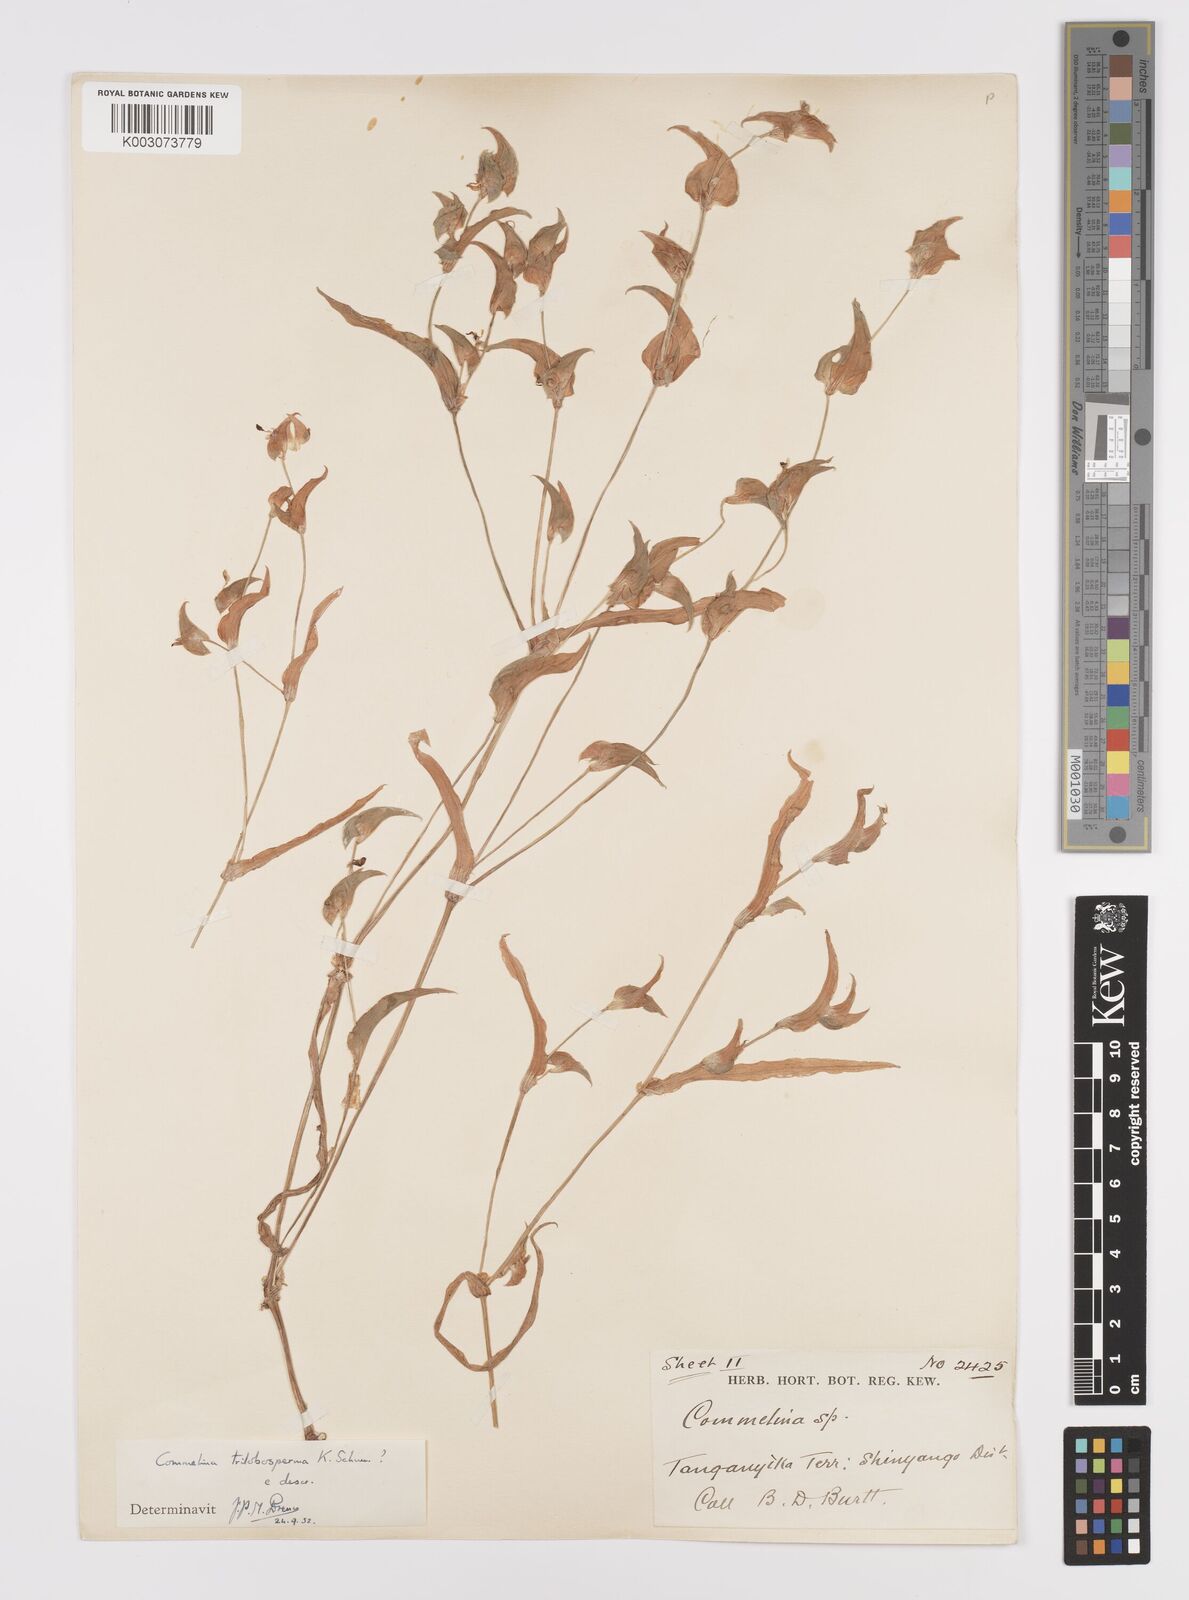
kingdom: Plantae
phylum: Tracheophyta
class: Liliopsida
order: Commelinales
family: Commelinaceae
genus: Commelina
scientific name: Commelina trilobosperma
